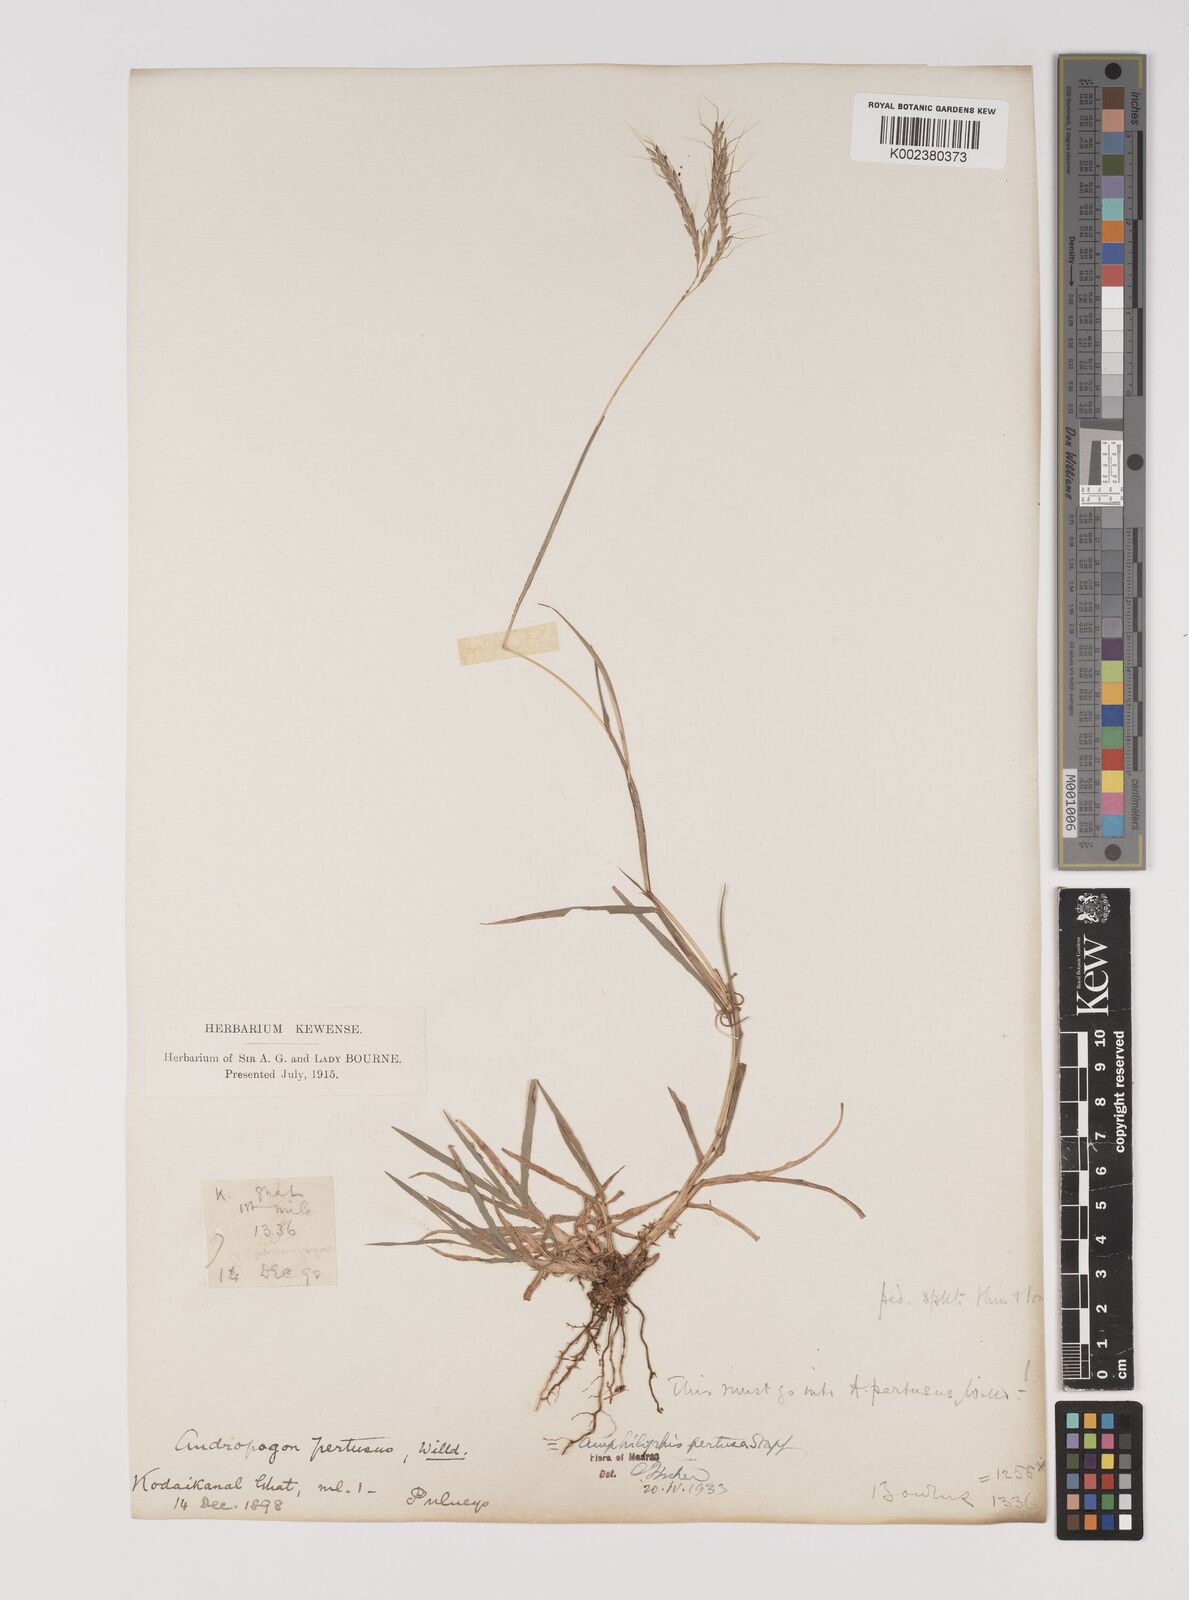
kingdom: Plantae
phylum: Tracheophyta
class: Liliopsida
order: Poales
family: Poaceae
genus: Bothriochloa
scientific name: Bothriochloa pertusa
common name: Pitted beardgrass
